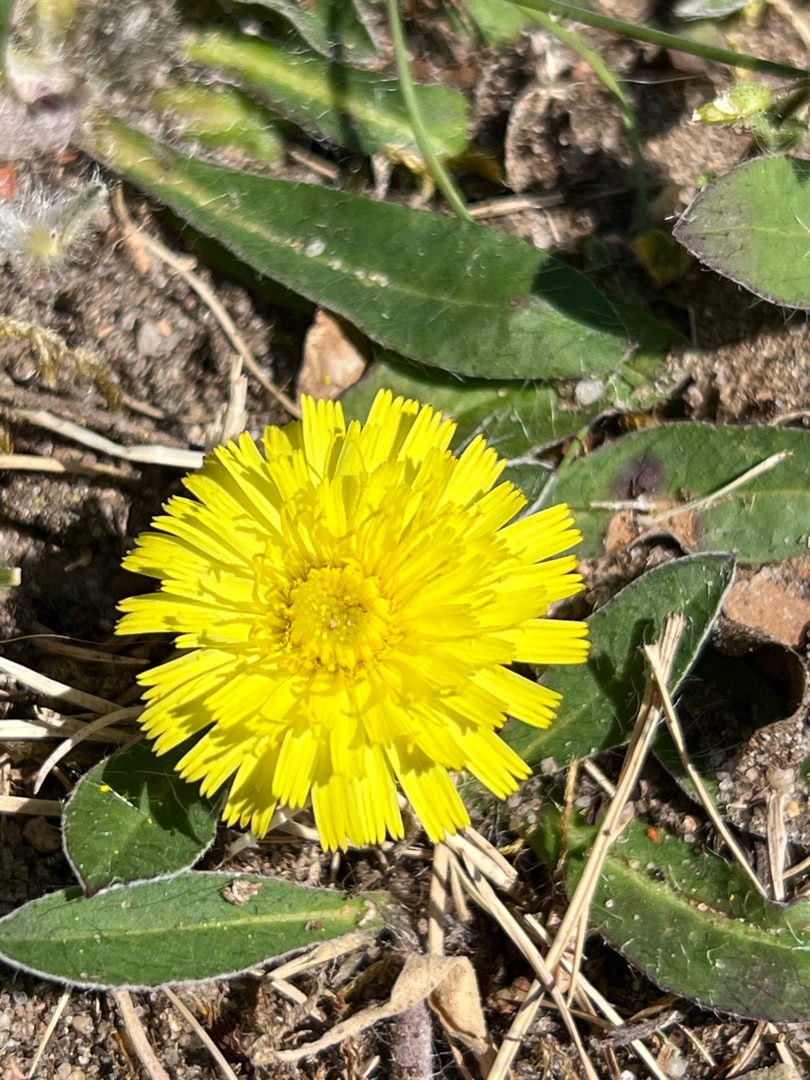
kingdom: Plantae
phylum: Tracheophyta
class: Magnoliopsida
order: Asterales
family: Asteraceae
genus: Pilosella
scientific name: Pilosella officinarum
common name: Håret høgeurt
